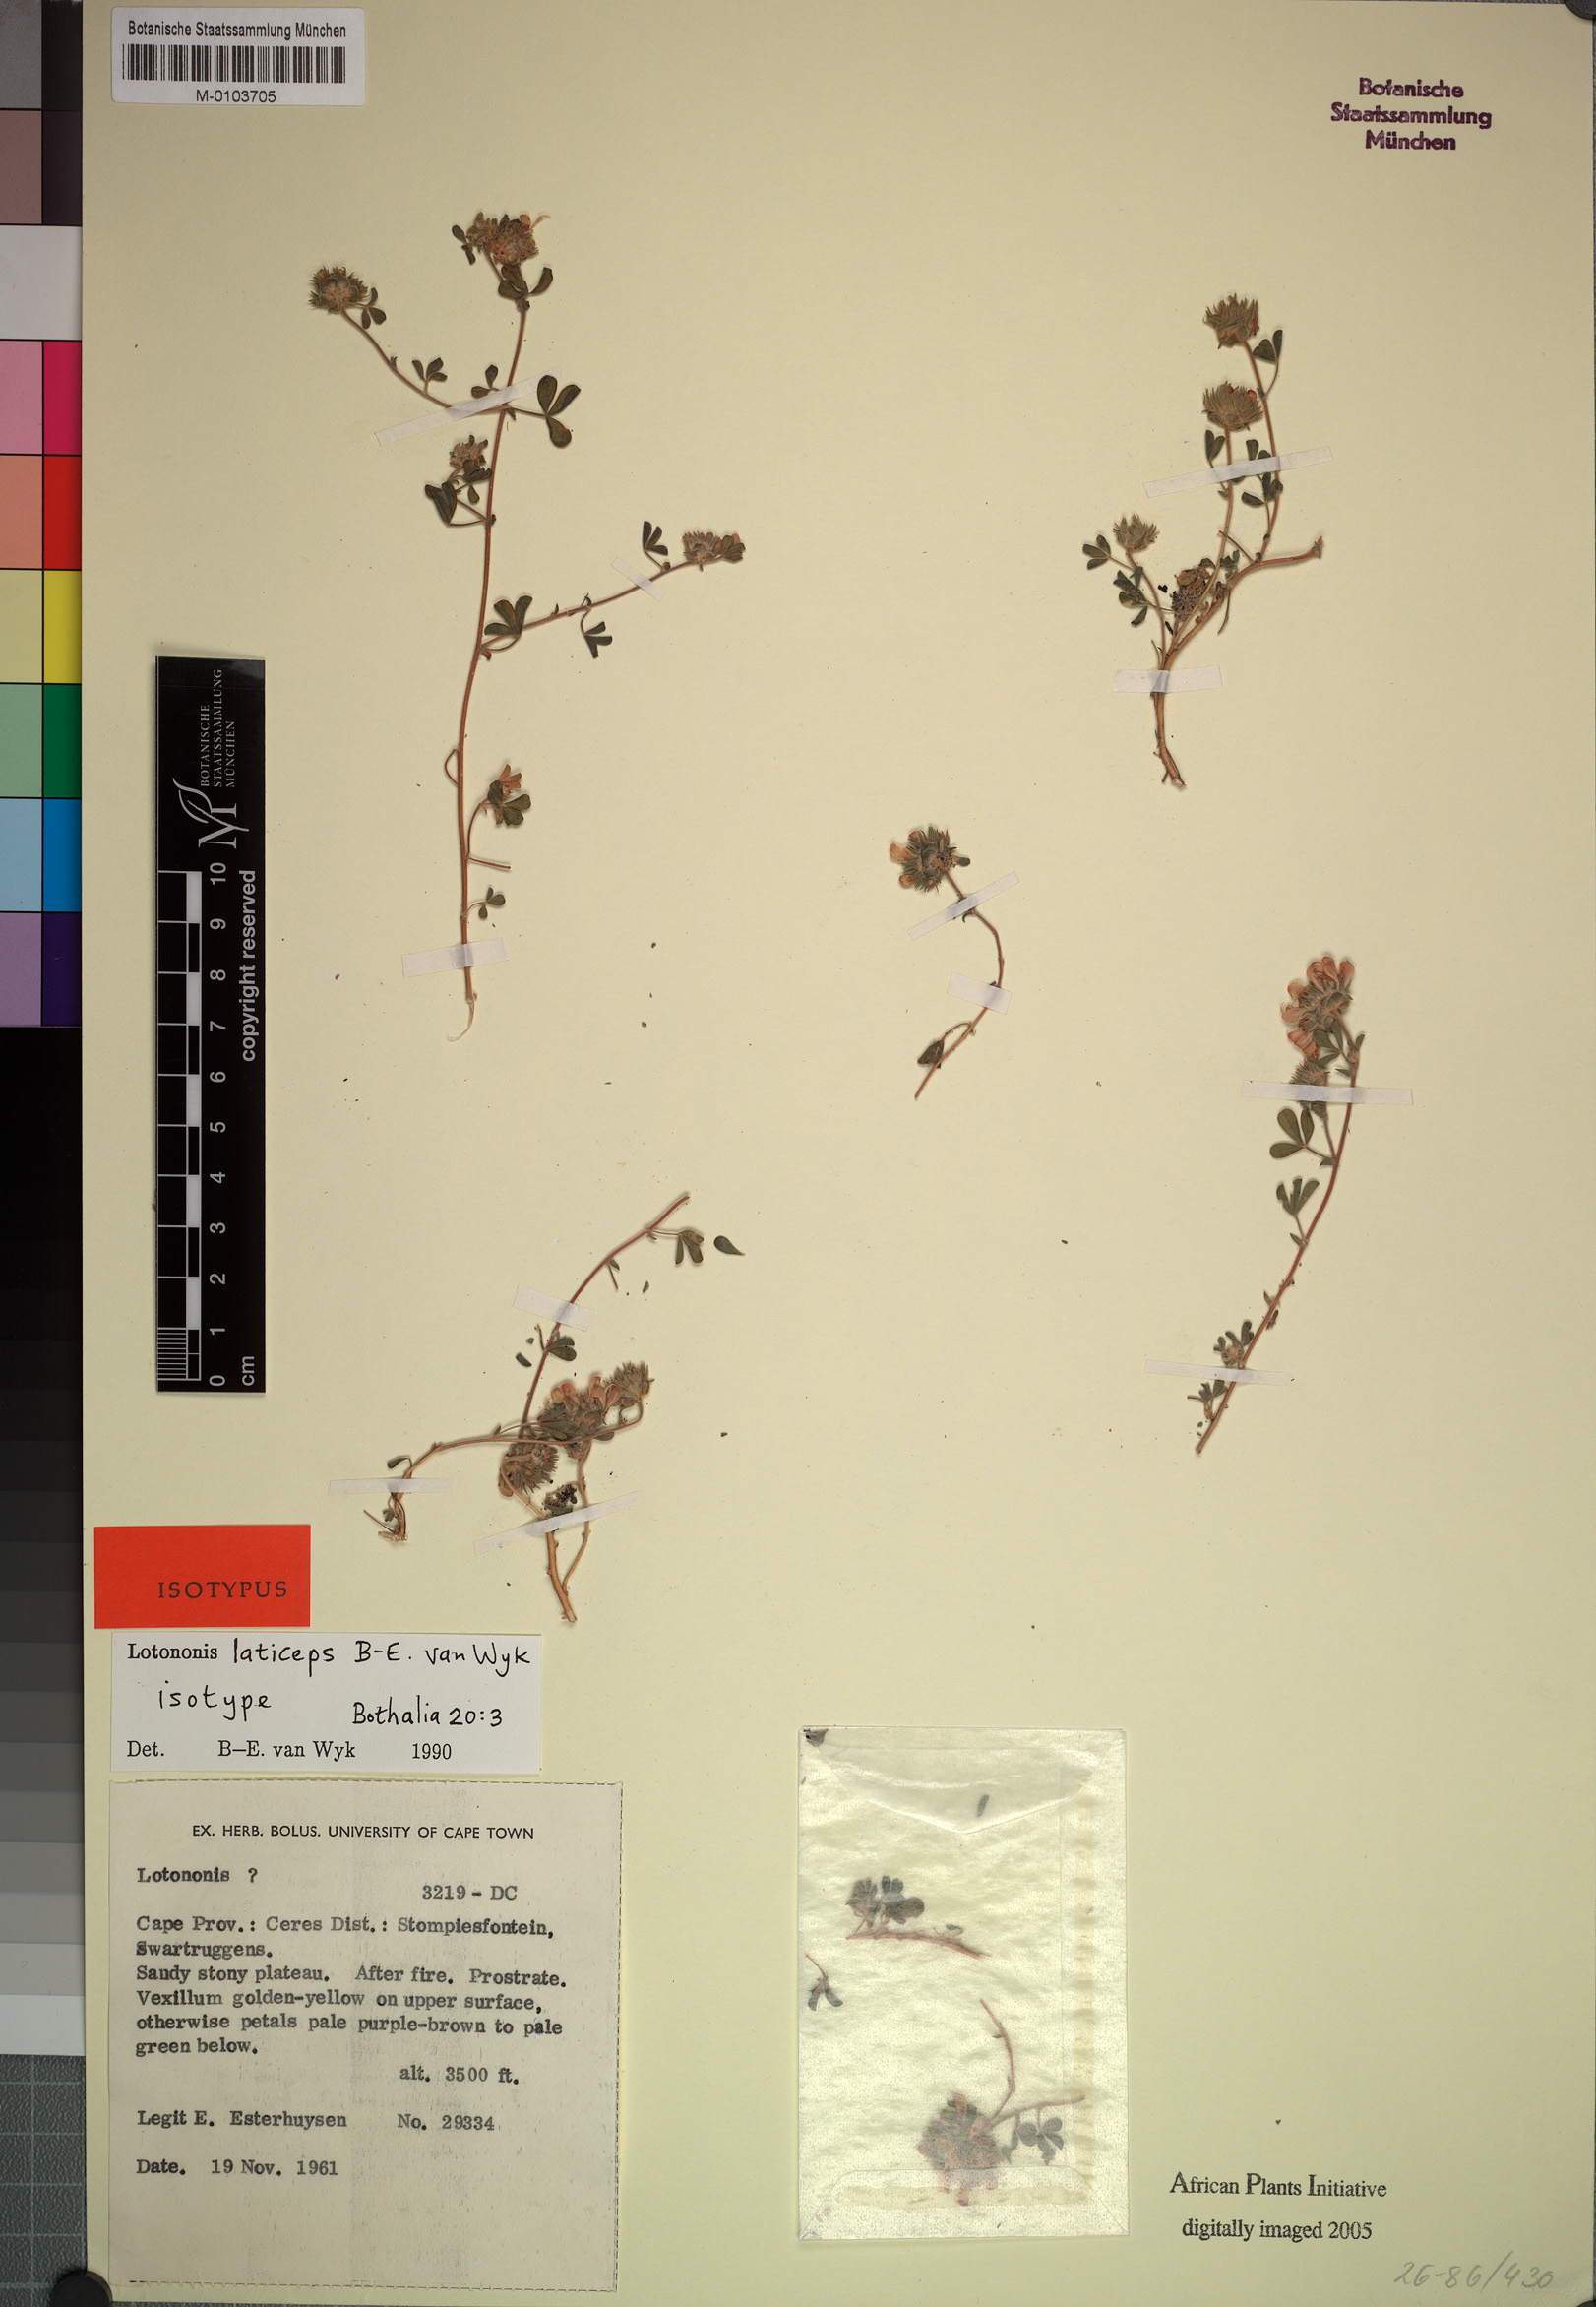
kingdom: Plantae
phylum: Tracheophyta
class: Magnoliopsida
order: Fabales
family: Fabaceae
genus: Leobordea
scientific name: Leobordea laticeps
